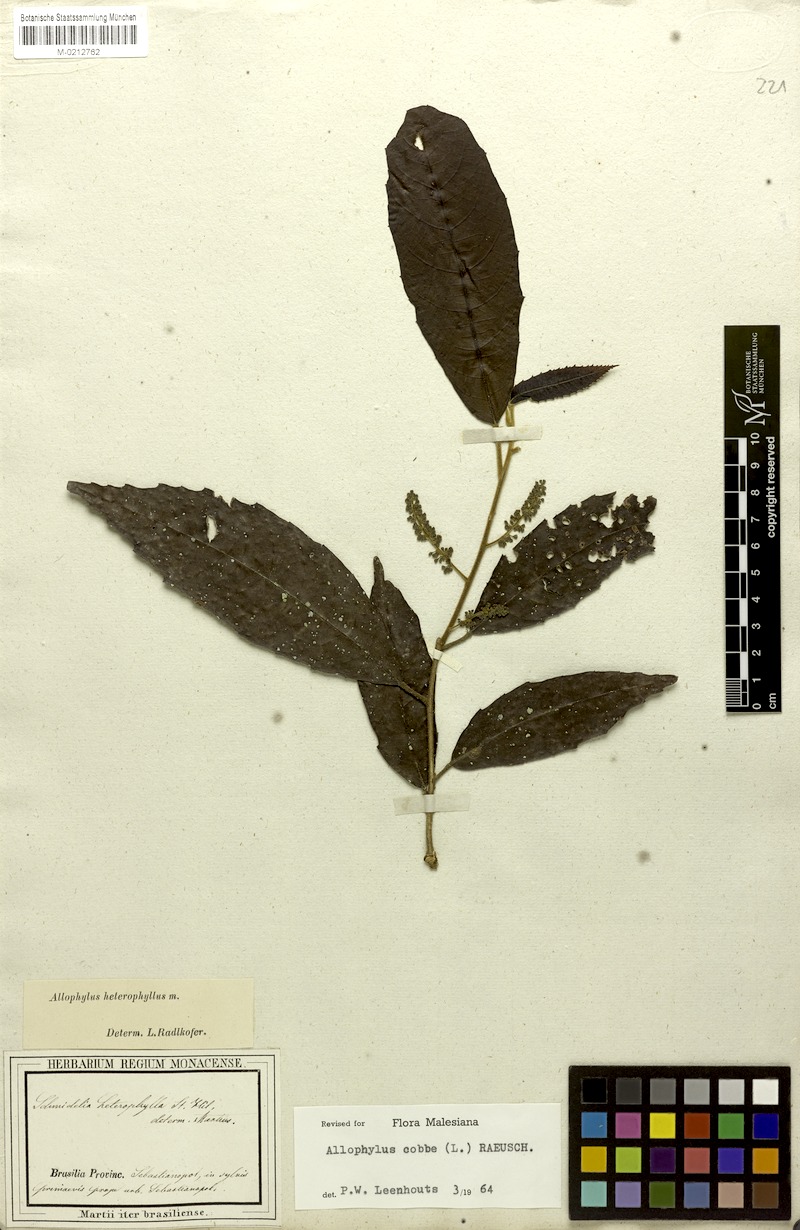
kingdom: Plantae
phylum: Tracheophyta
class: Magnoliopsida
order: Sapindales
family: Sapindaceae
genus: Allophylus
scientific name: Allophylus heterophyllus
